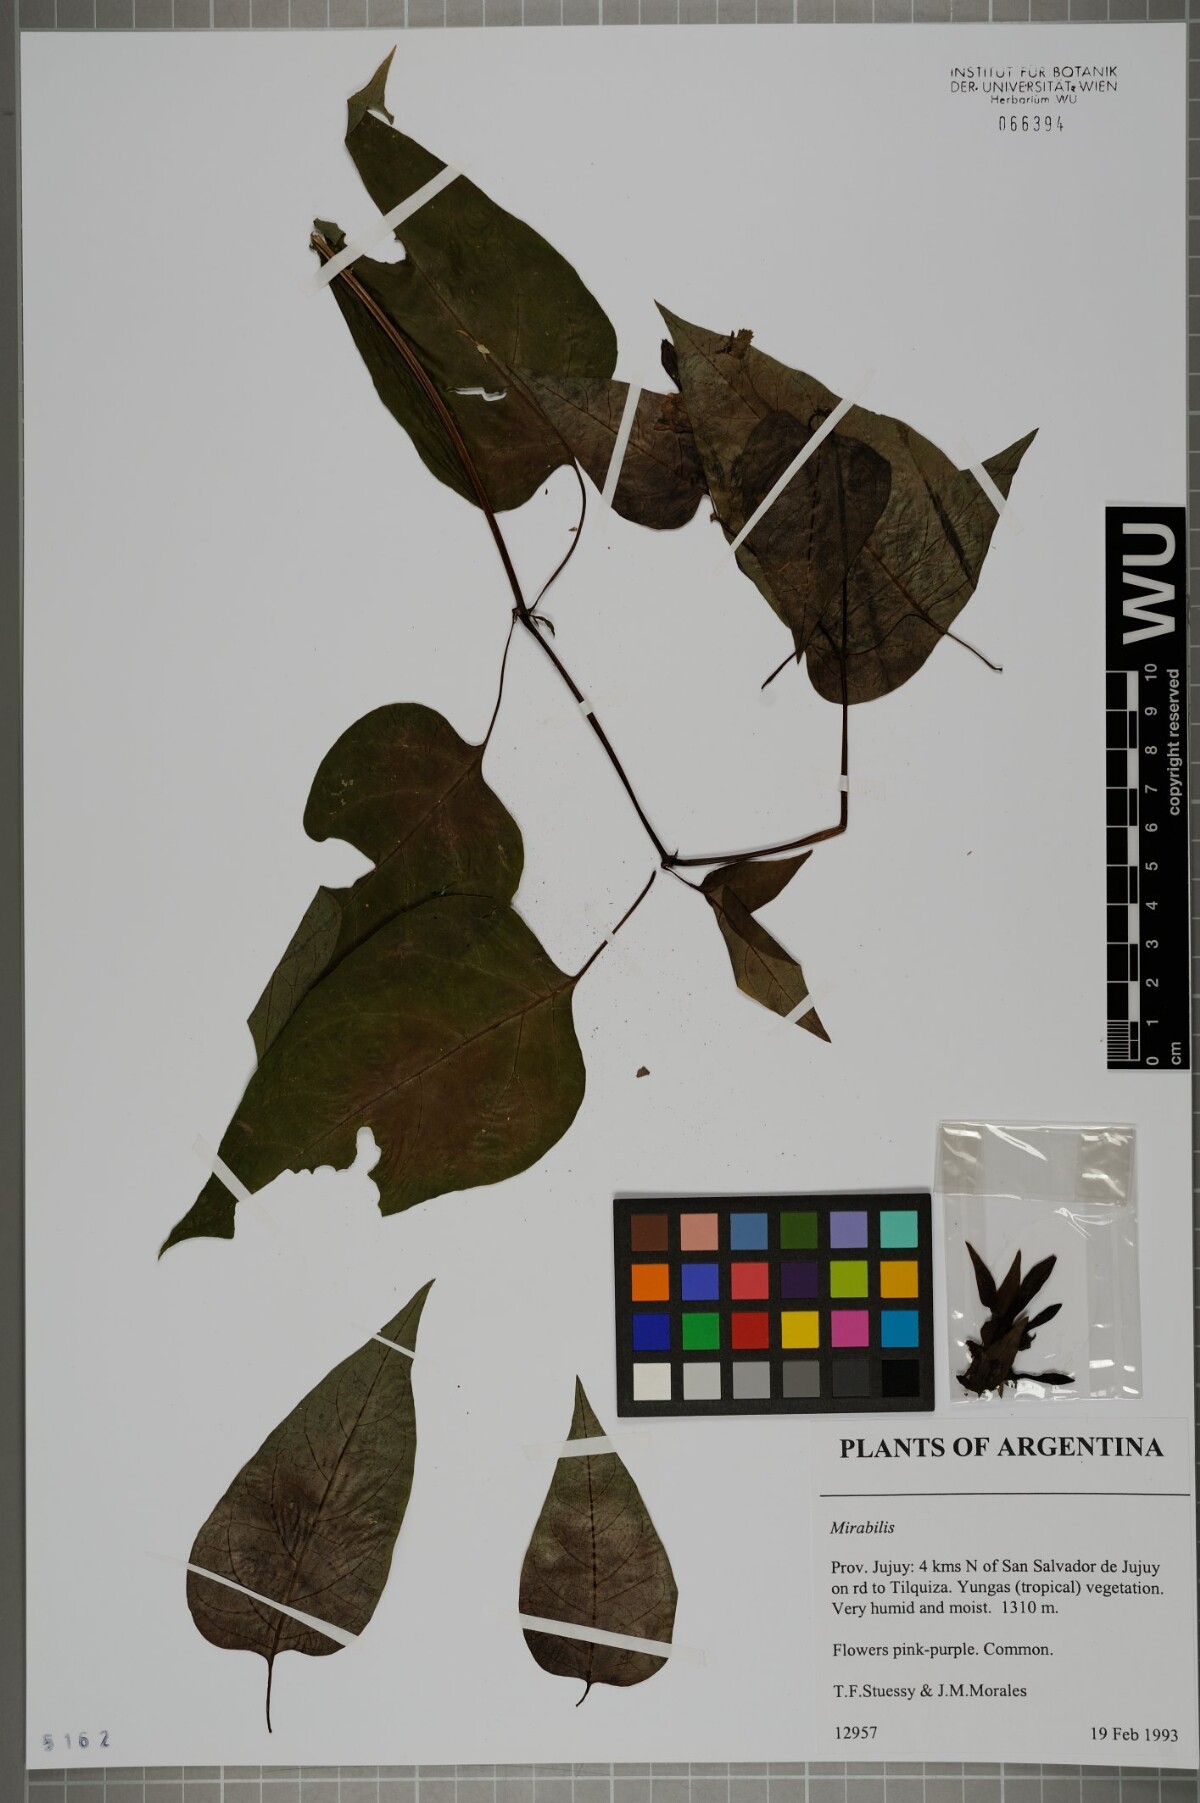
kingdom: Plantae
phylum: Tracheophyta
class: Magnoliopsida
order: Caryophyllales
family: Nyctaginaceae
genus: Mirabilis
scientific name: Mirabilis
